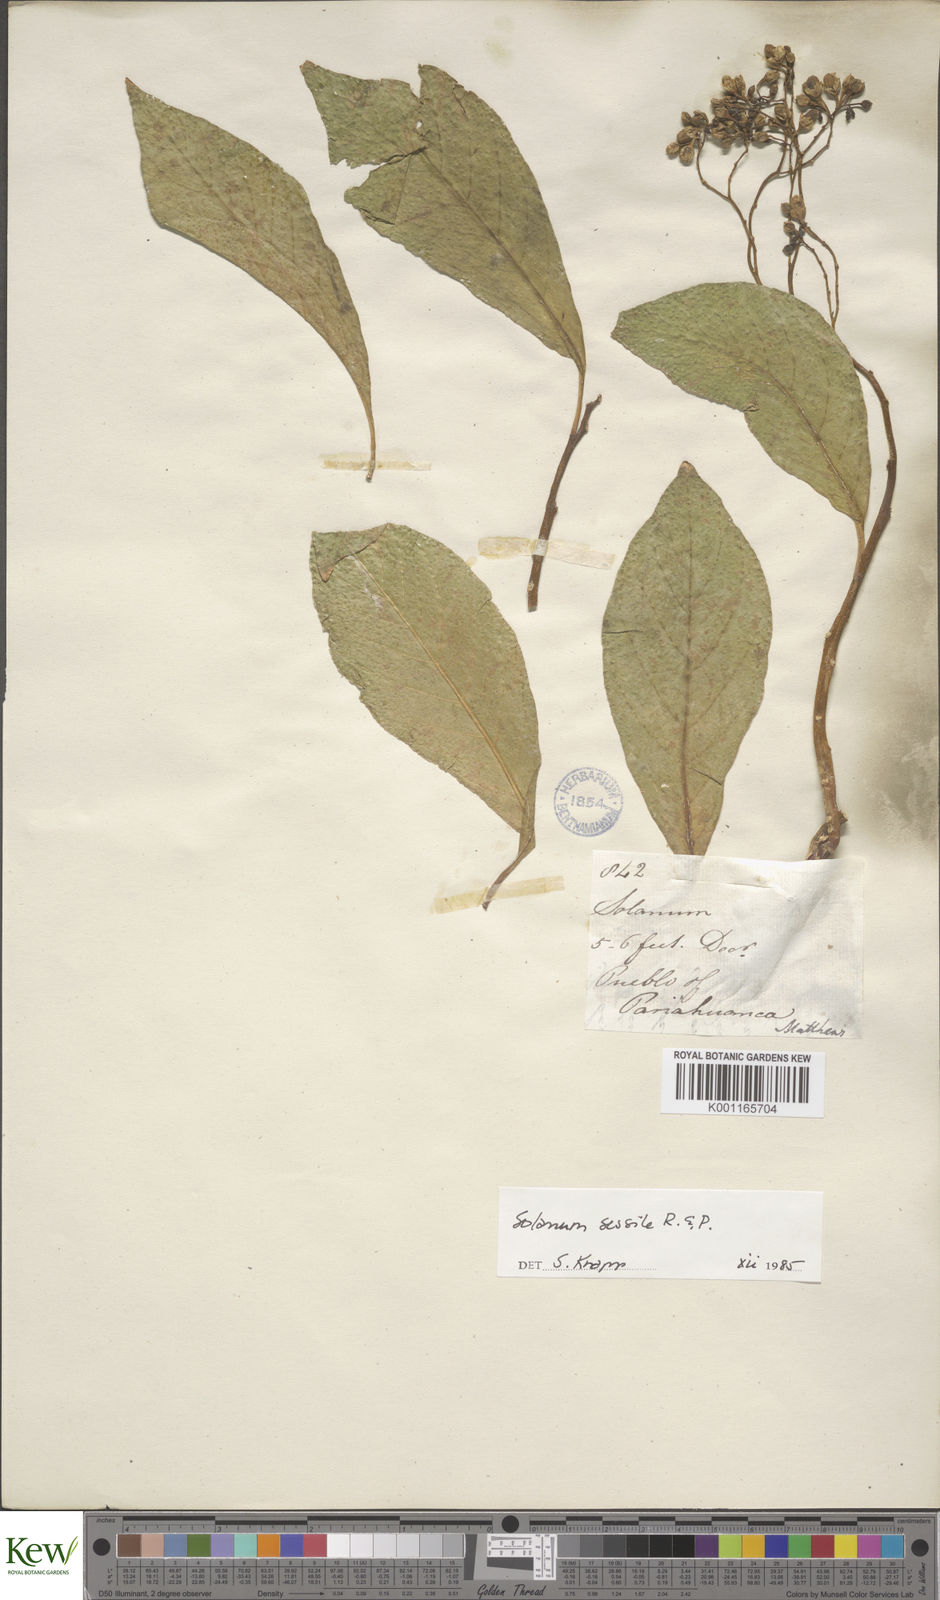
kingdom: Plantae
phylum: Tracheophyta
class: Magnoliopsida
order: Solanales
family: Solanaceae
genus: Solanum
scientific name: Solanum sessile
